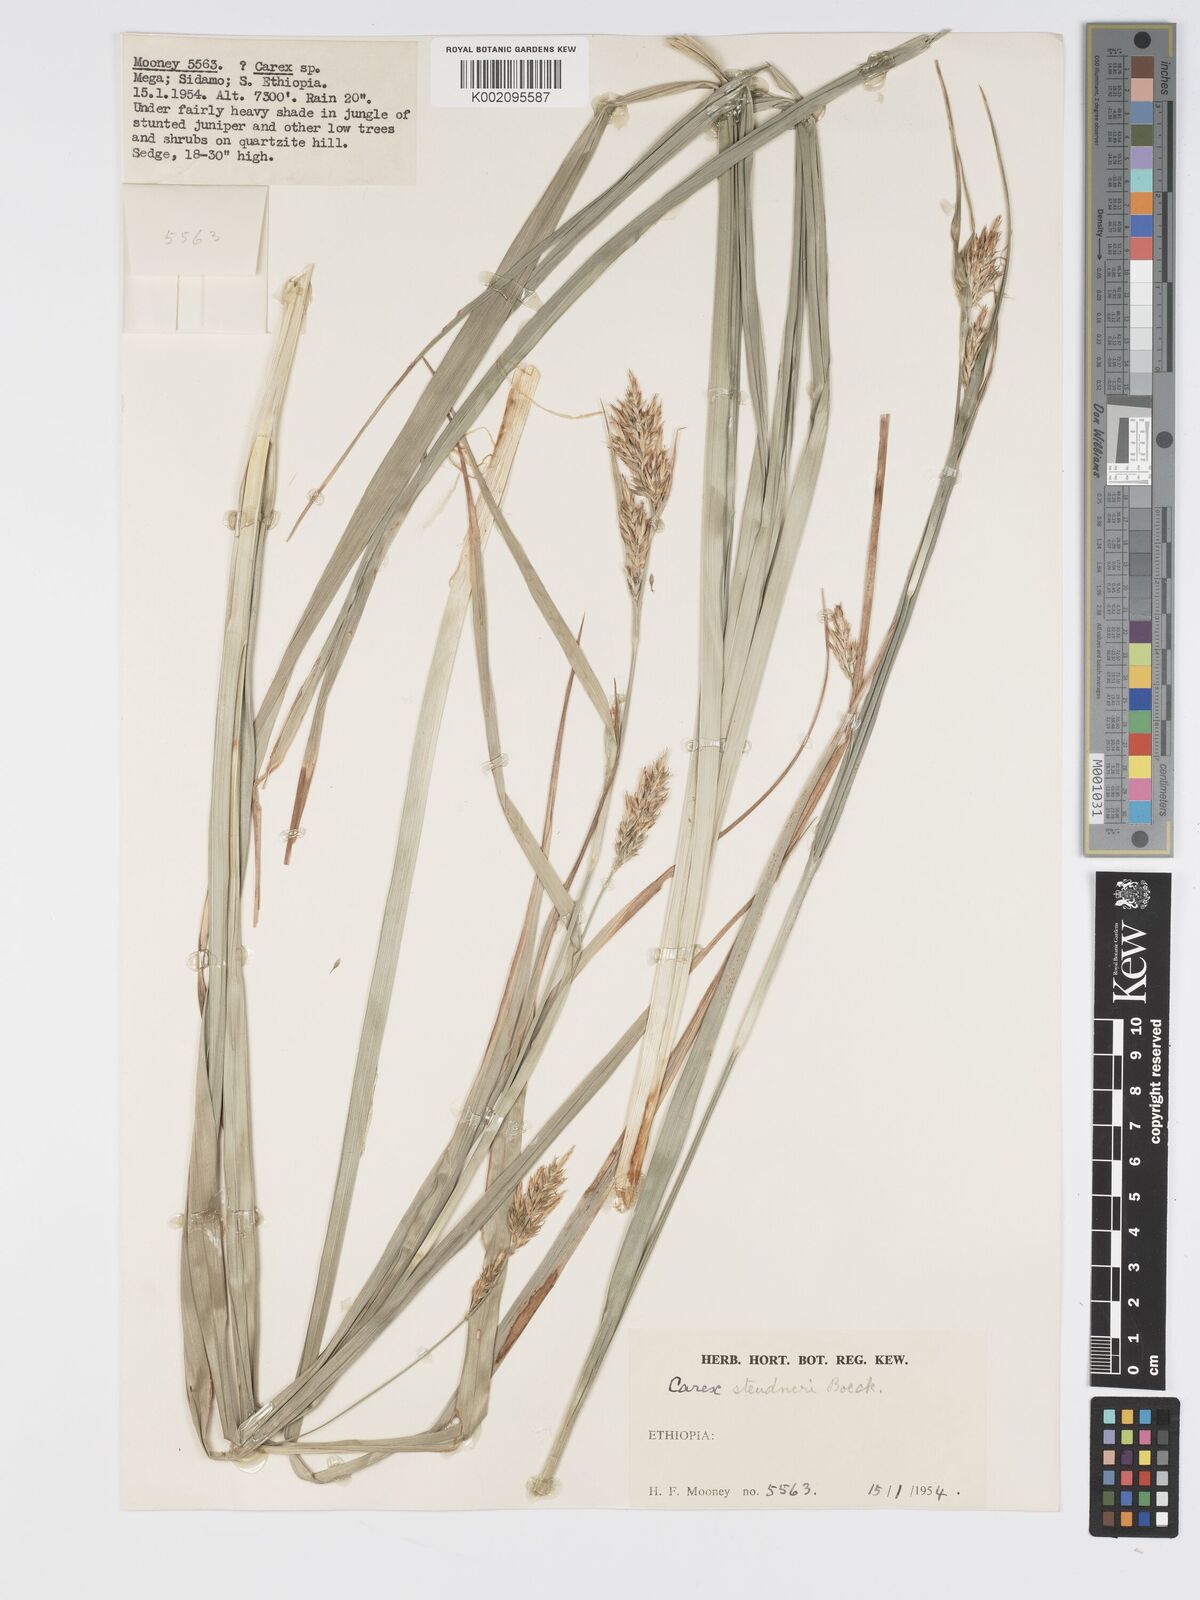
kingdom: Plantae
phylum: Tracheophyta
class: Liliopsida
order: Poales
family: Cyperaceae
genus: Carex
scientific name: Carex steudneri
